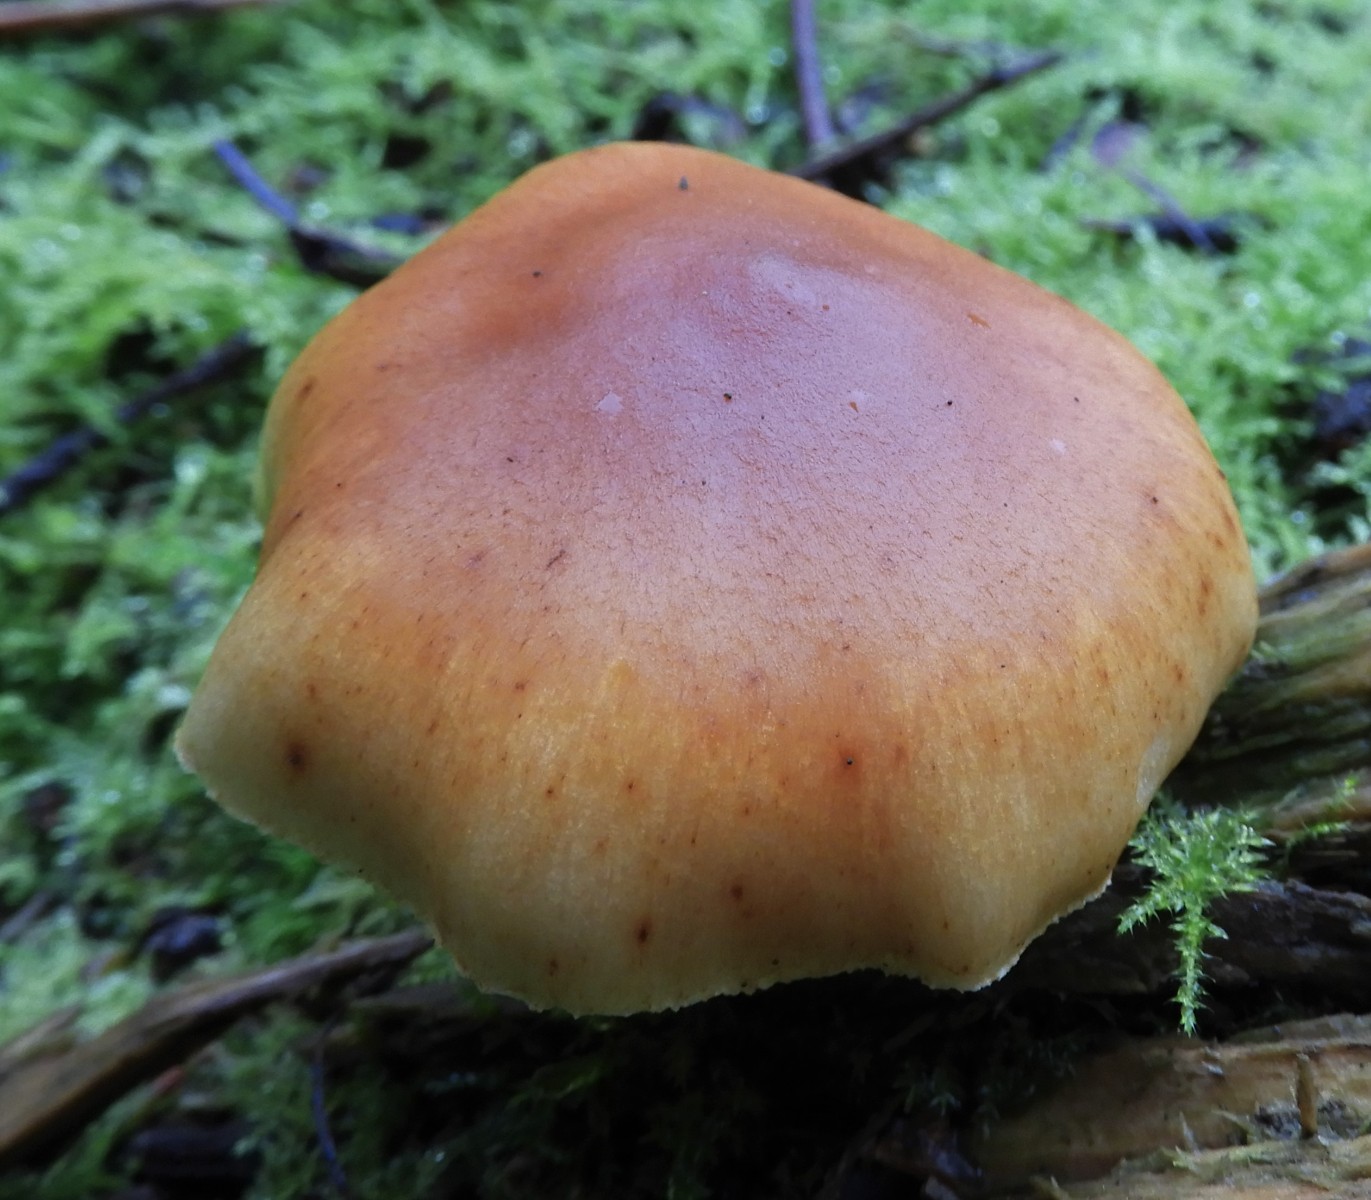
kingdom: Fungi
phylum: Basidiomycota
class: Agaricomycetes
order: Agaricales
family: Hymenogastraceae
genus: Gymnopilus
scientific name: Gymnopilus penetrans
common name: plettet flammehat
